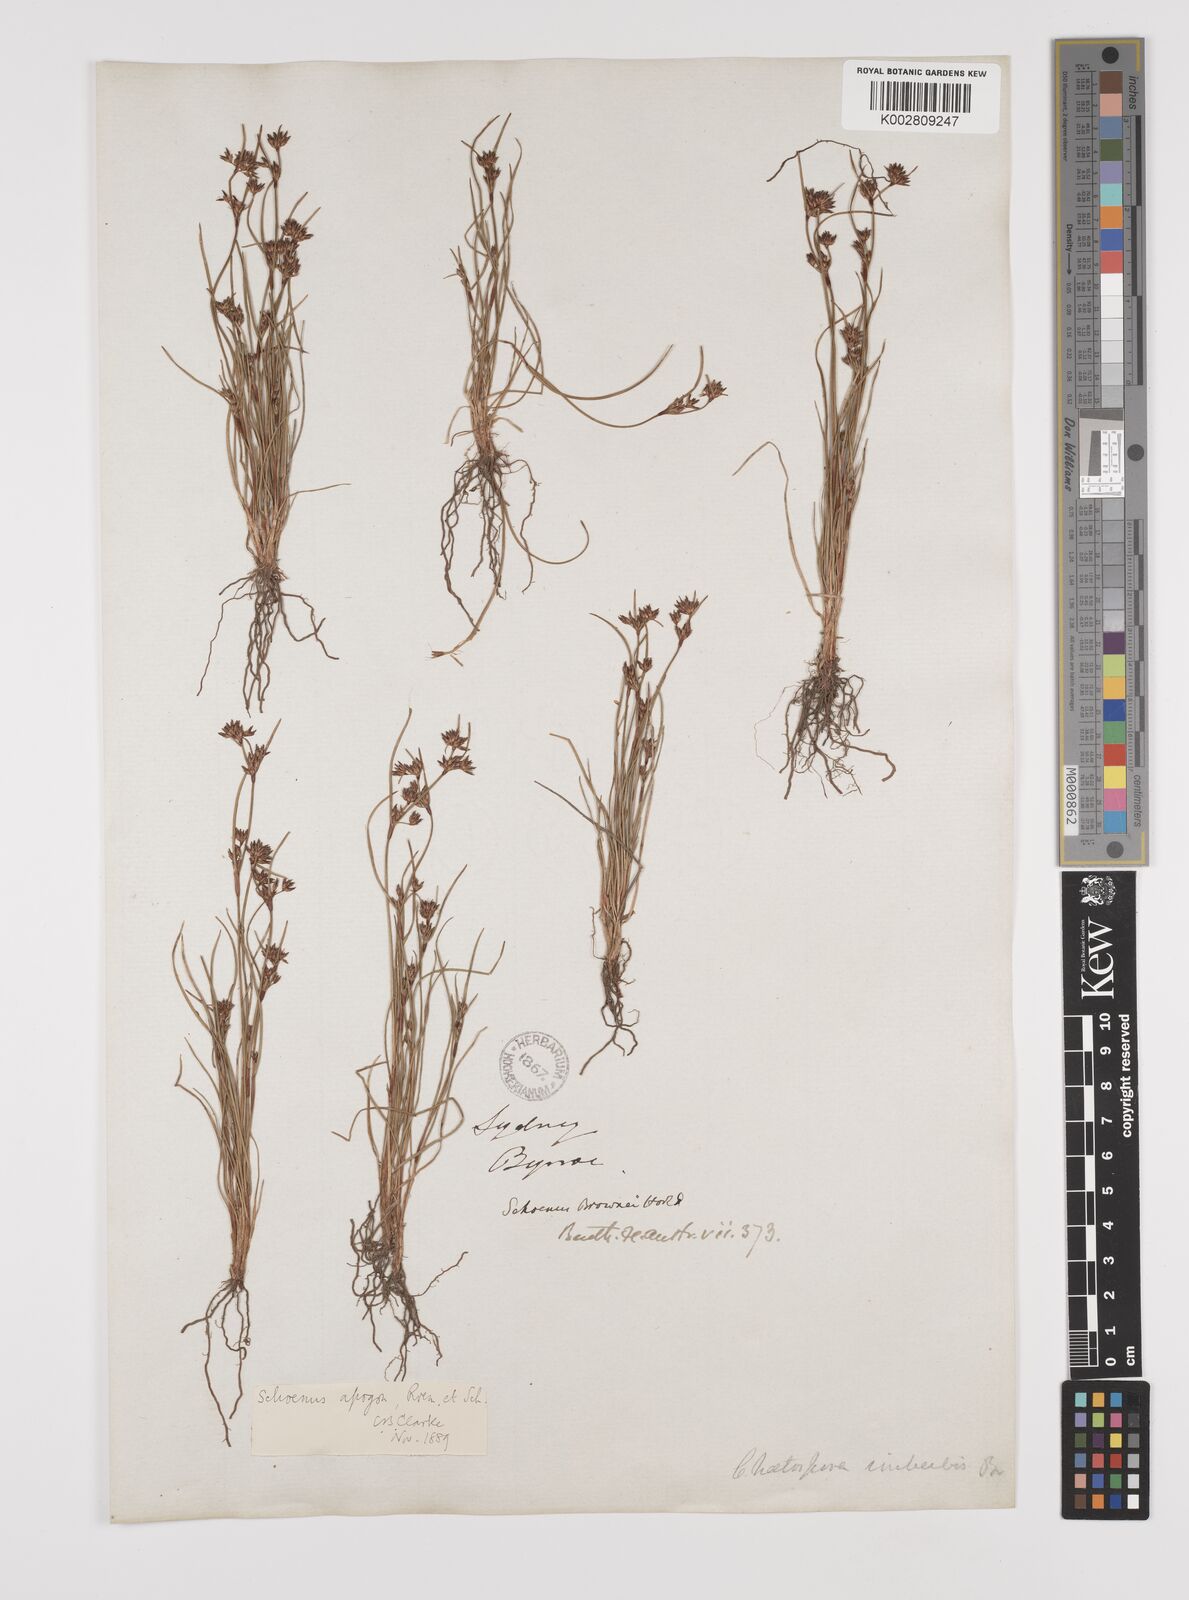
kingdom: Plantae
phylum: Tracheophyta
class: Liliopsida
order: Poales
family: Cyperaceae
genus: Schoenus
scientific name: Schoenus apogon
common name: Smooth bogrush
